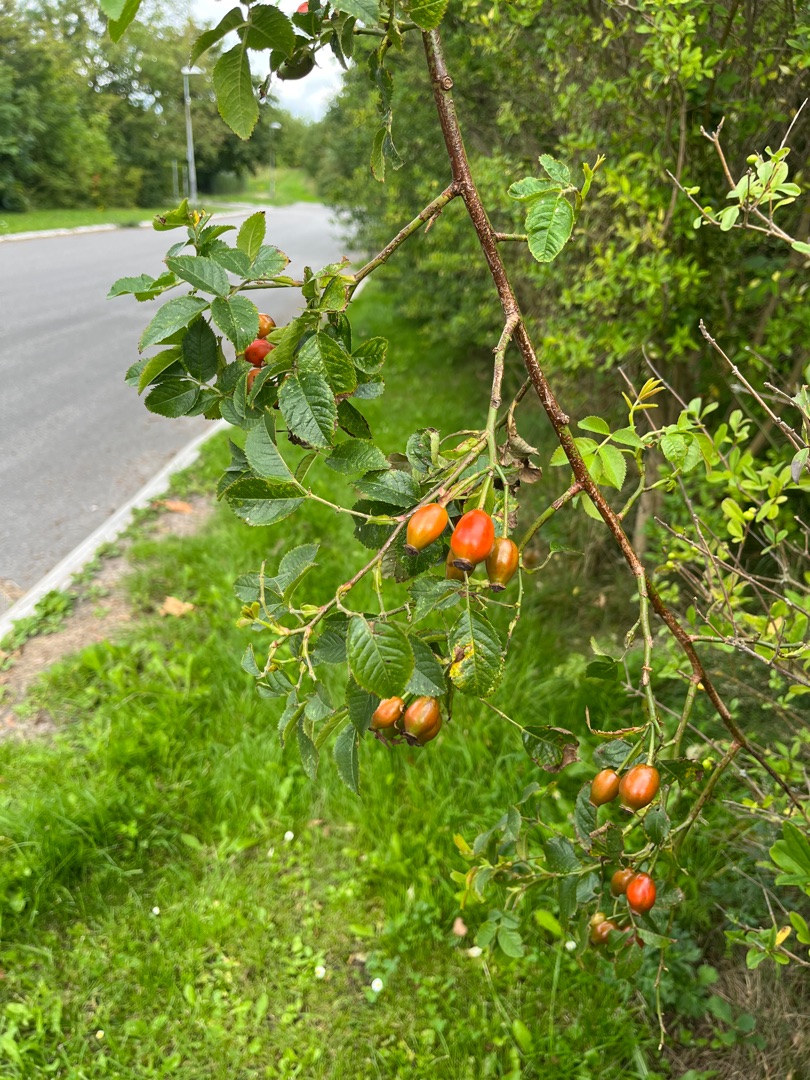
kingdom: Plantae
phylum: Tracheophyta
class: Magnoliopsida
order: Rosales
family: Rosaceae
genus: Rosa
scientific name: Rosa canina
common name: Glat hunde-rose
